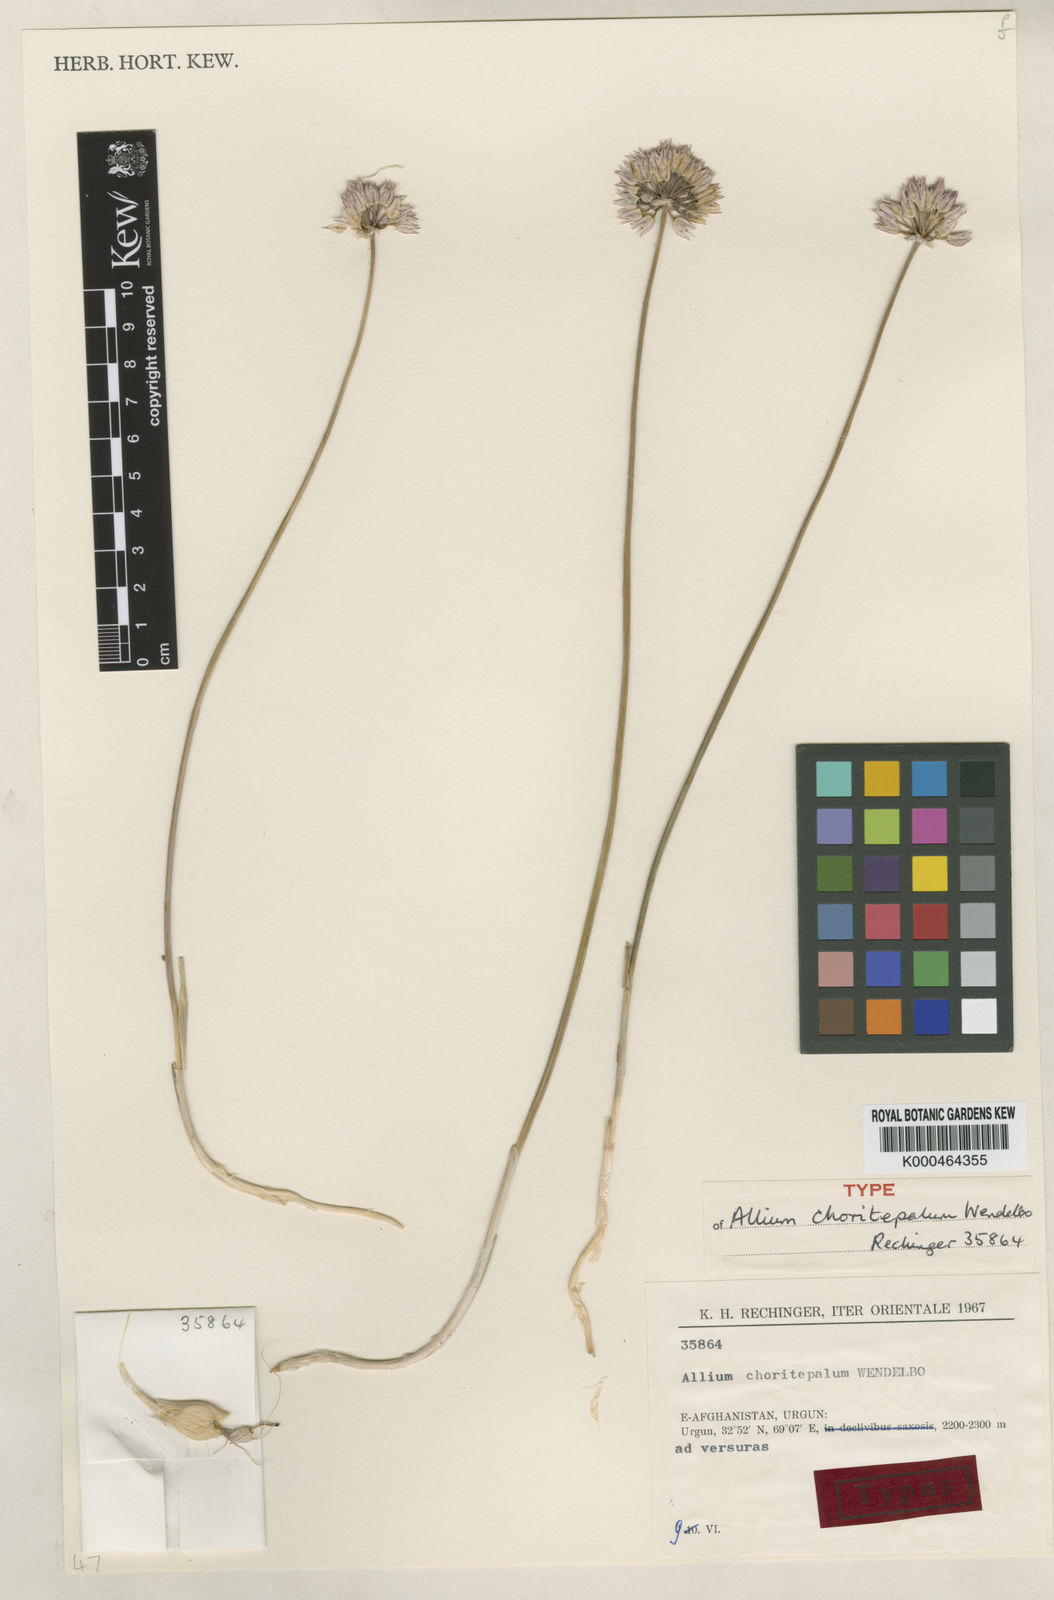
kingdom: Plantae
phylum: Tracheophyta
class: Liliopsida
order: Asparagales
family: Amaryllidaceae
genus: Allium
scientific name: Allium
